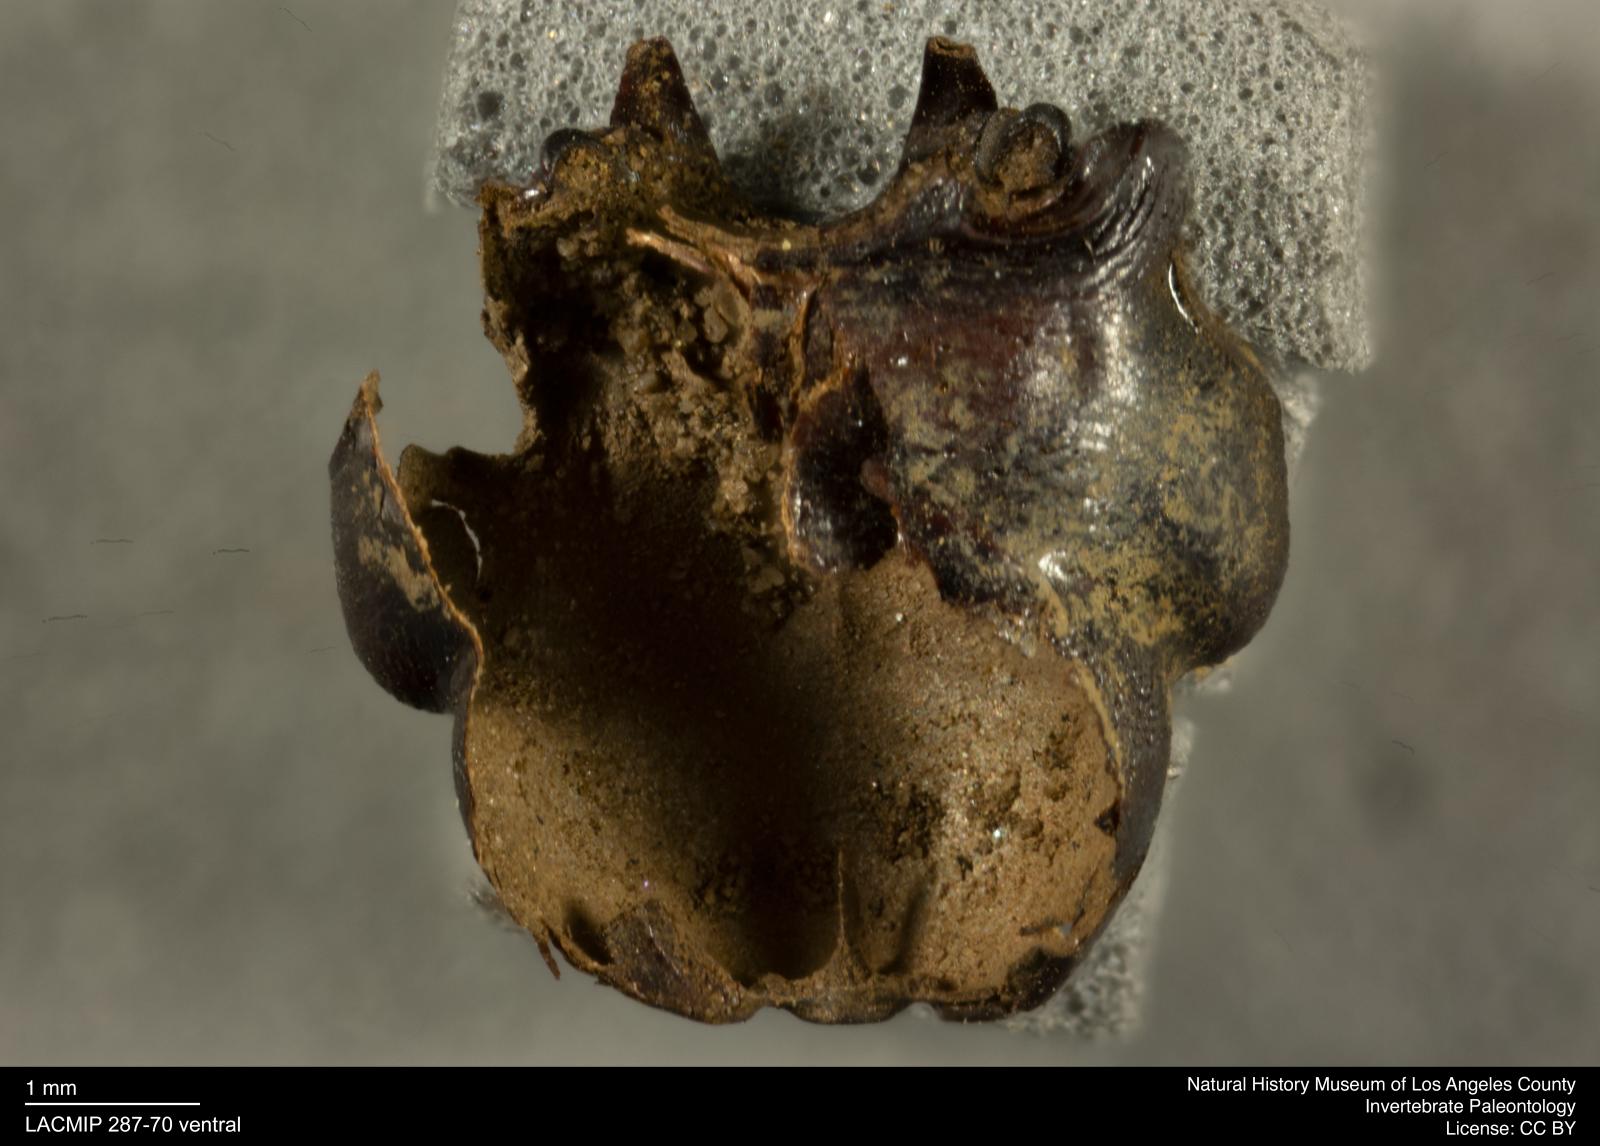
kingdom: Animalia
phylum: Arthropoda
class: Insecta
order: Coleoptera
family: Staphylinidae
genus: Nicrophorus
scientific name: Nicrophorus marginatus
